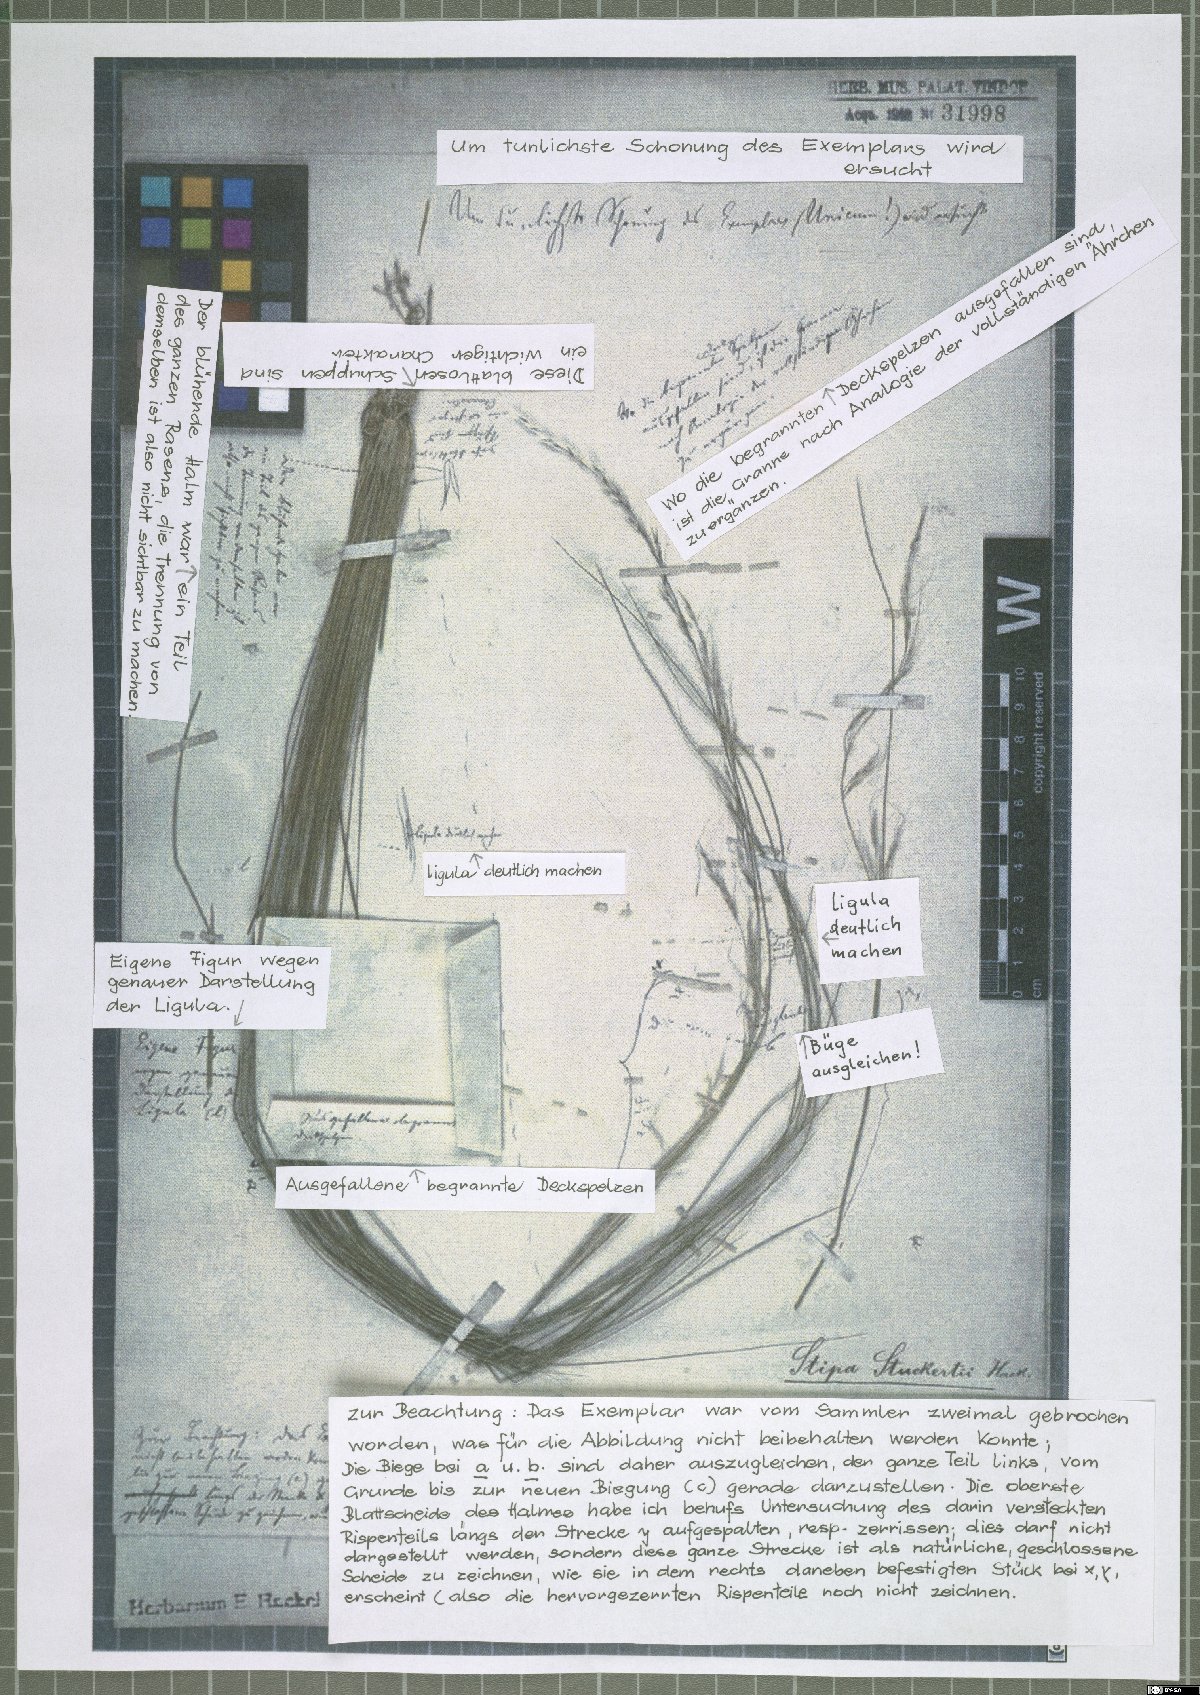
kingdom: Plantae
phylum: Tracheophyta
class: Liliopsida
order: Poales
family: Poaceae
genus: Nassella
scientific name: Nassella stuckertii
